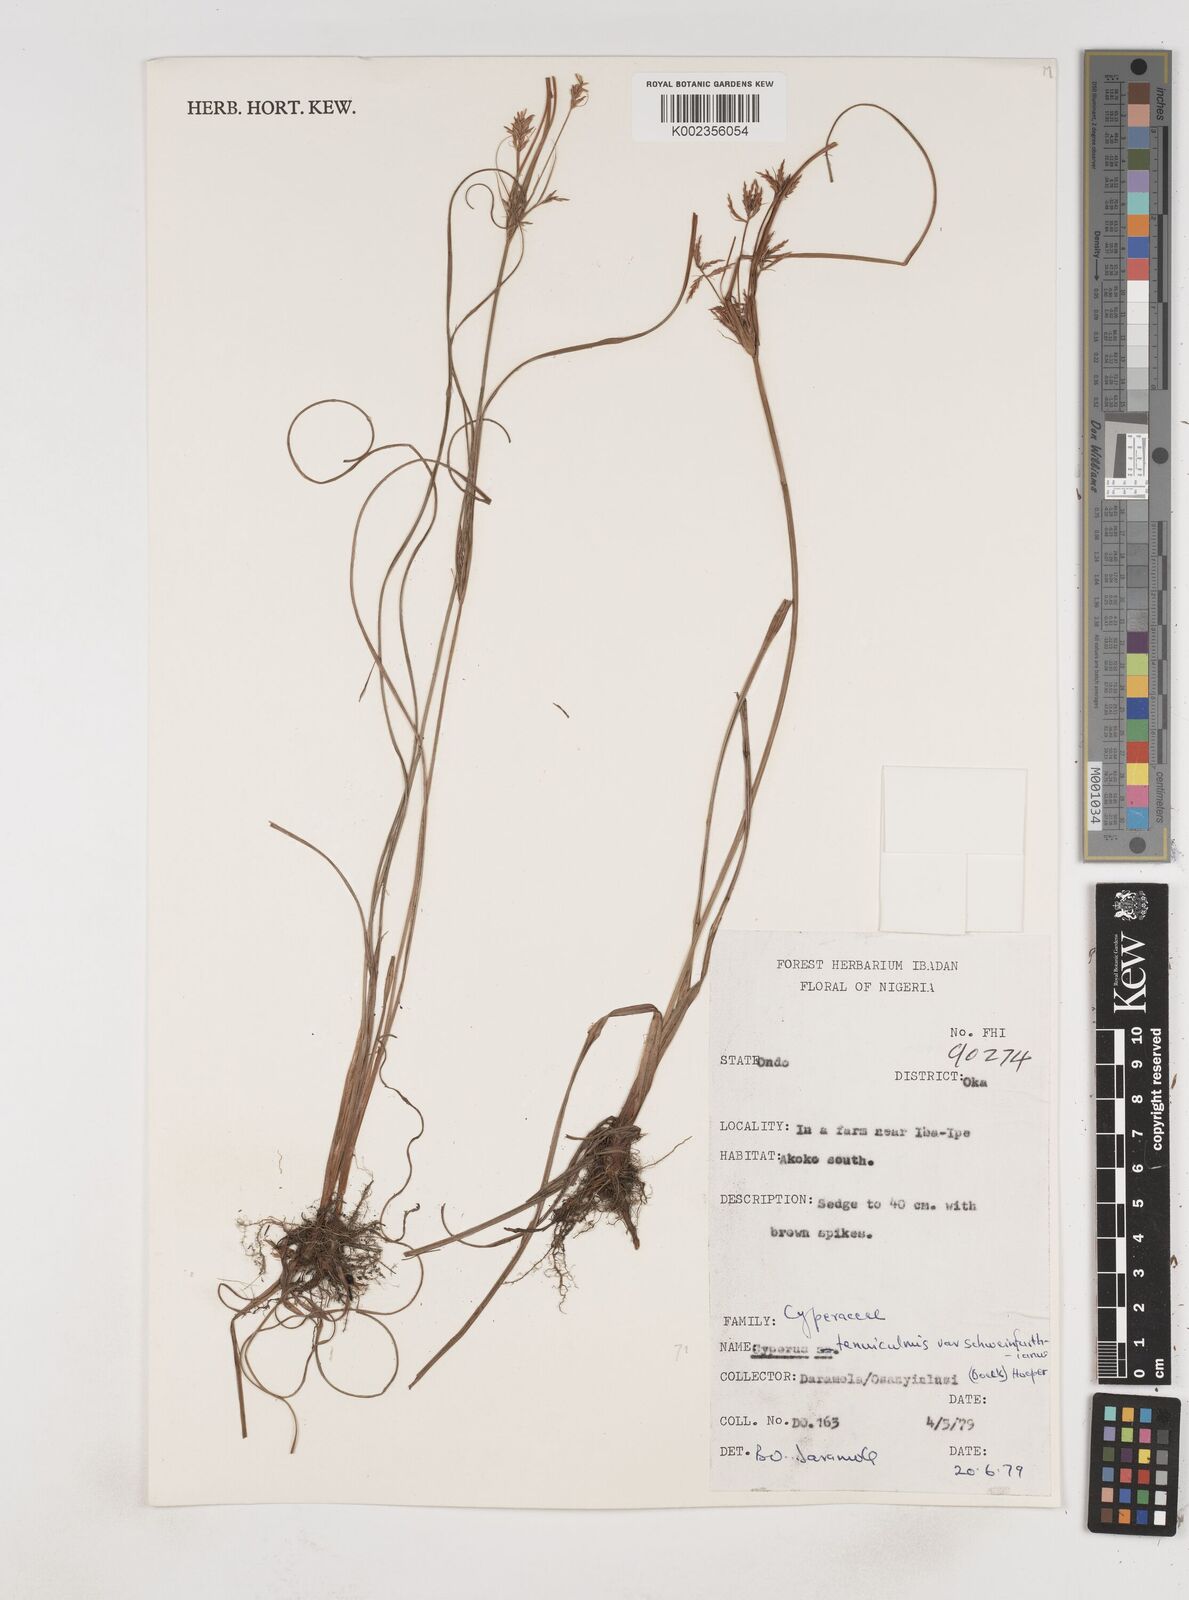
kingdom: Plantae
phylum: Tracheophyta
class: Liliopsida
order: Poales
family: Cyperaceae
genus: Cyperus
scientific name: Cyperus tenuiculmis
